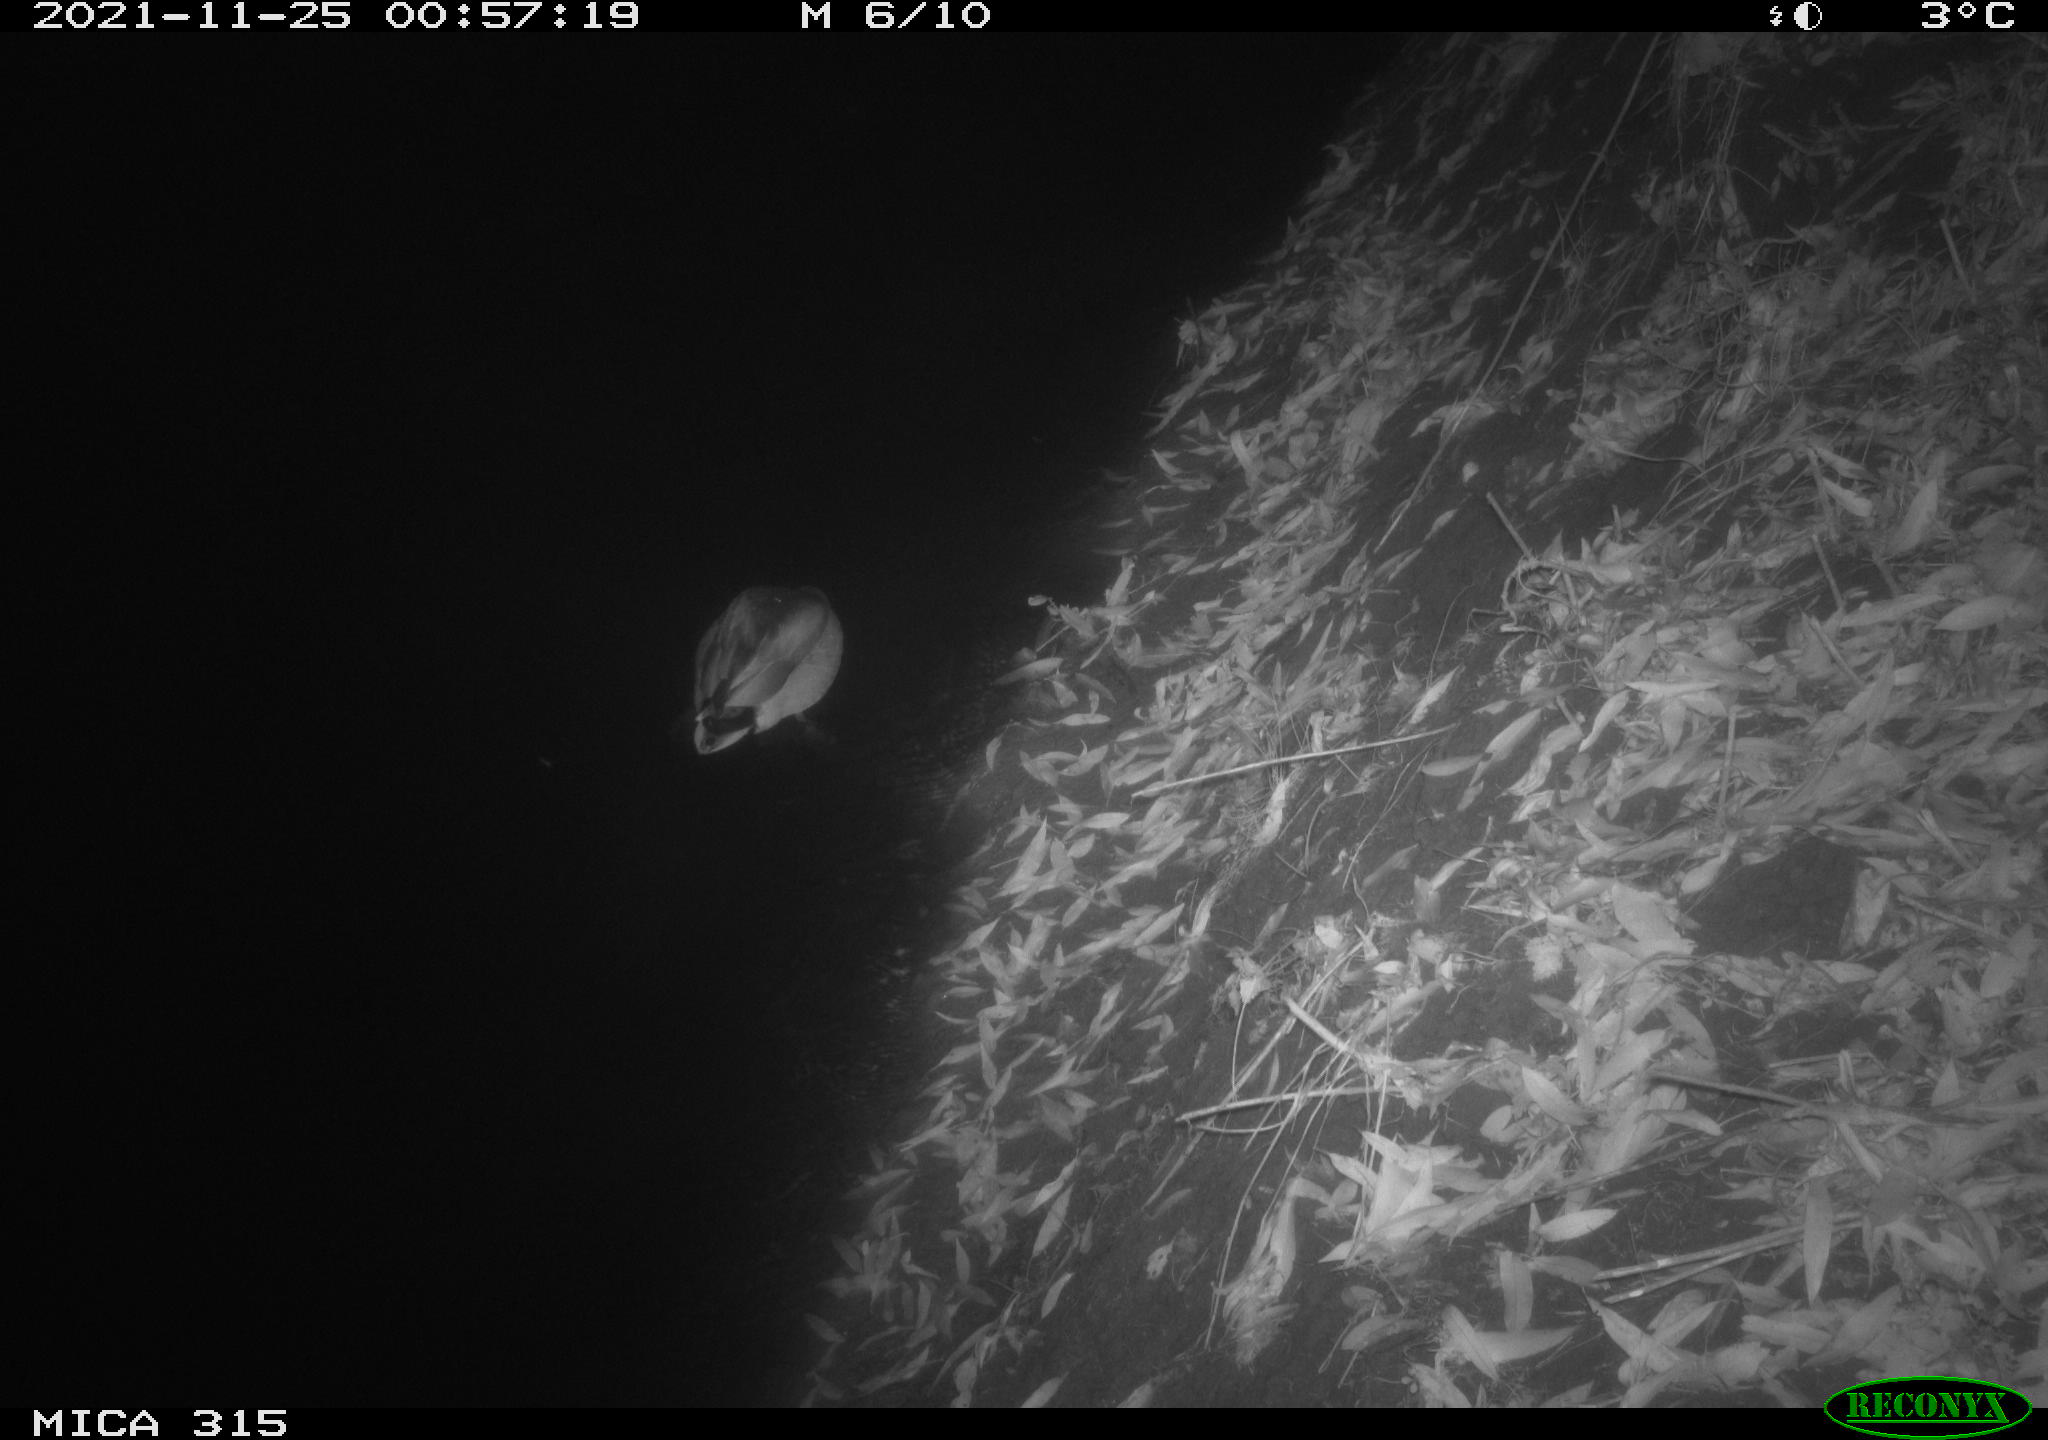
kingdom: Animalia
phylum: Chordata
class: Aves
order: Anseriformes
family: Anatidae
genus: Anas
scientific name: Anas platyrhynchos
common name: Mallard
